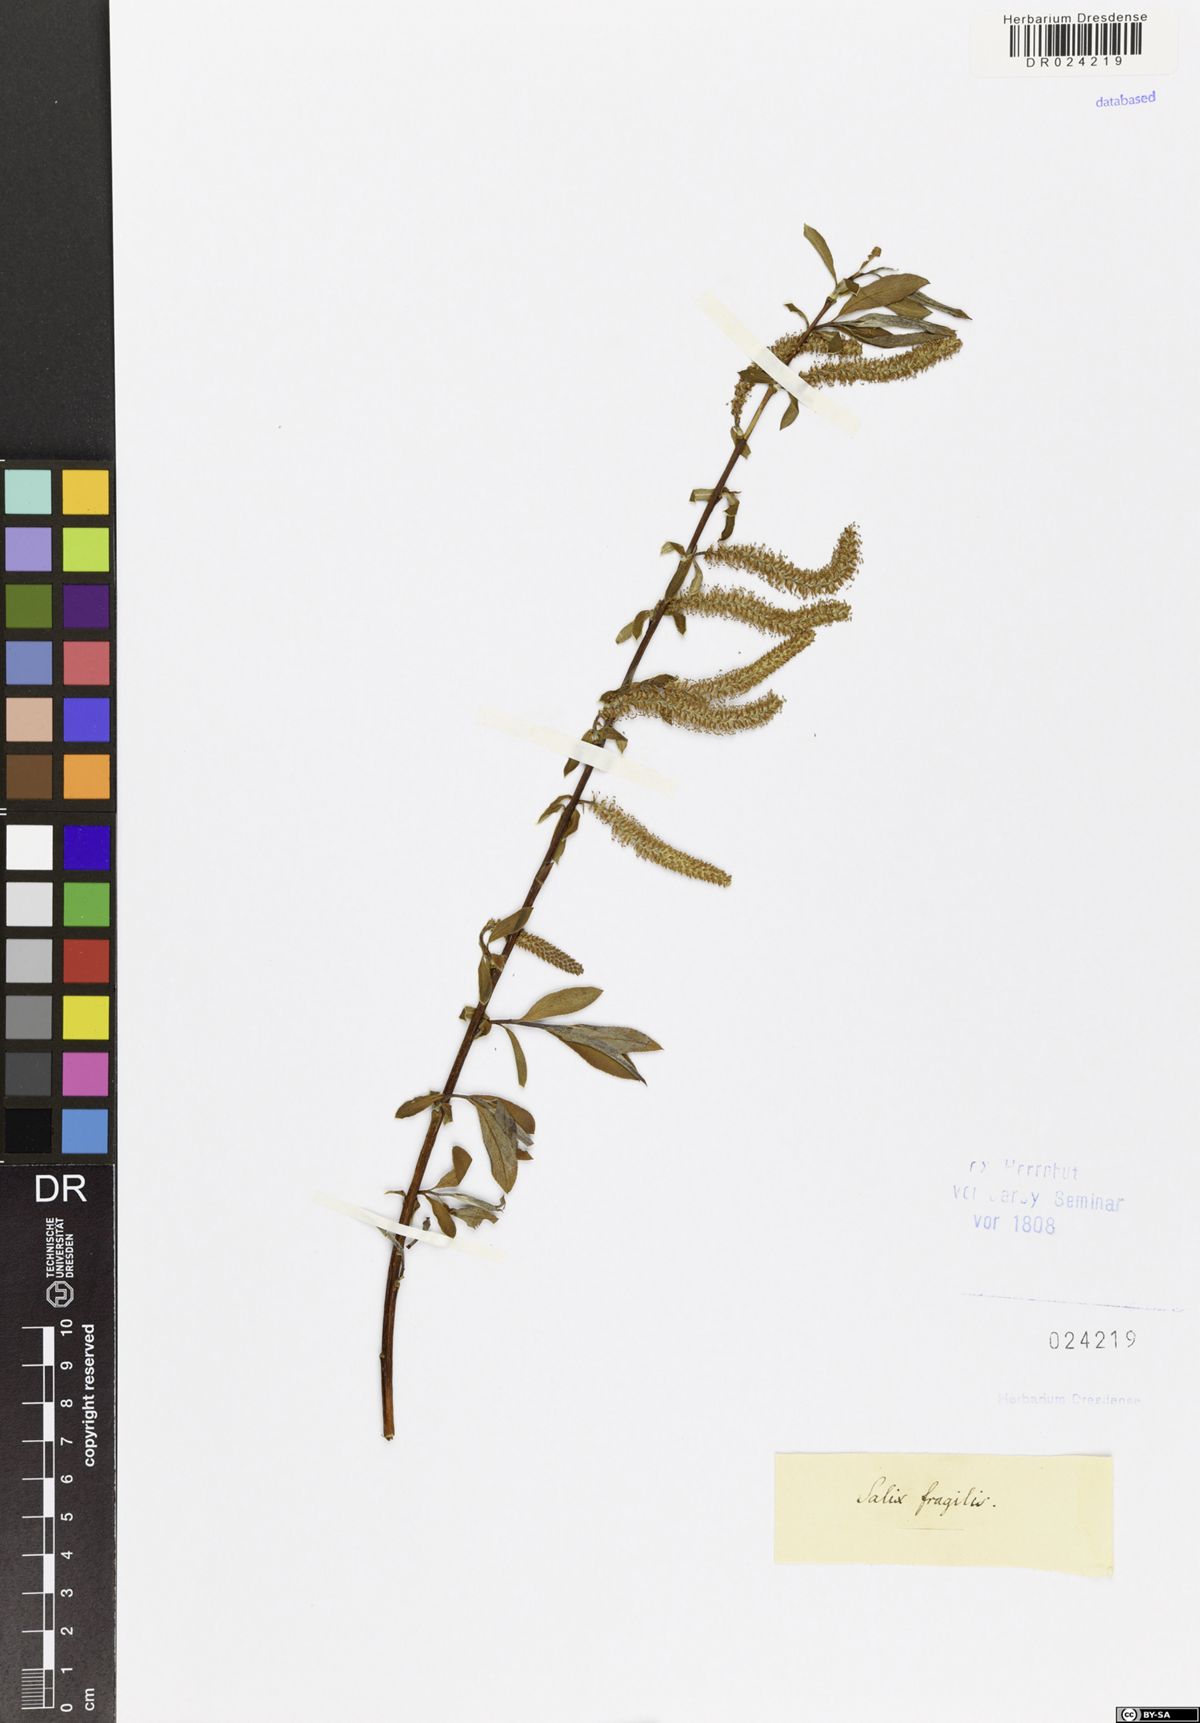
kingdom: Plantae
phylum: Tracheophyta
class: Magnoliopsida
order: Malpighiales
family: Salicaceae
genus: Salix
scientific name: Salix rubens
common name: Hybrid crack willow
